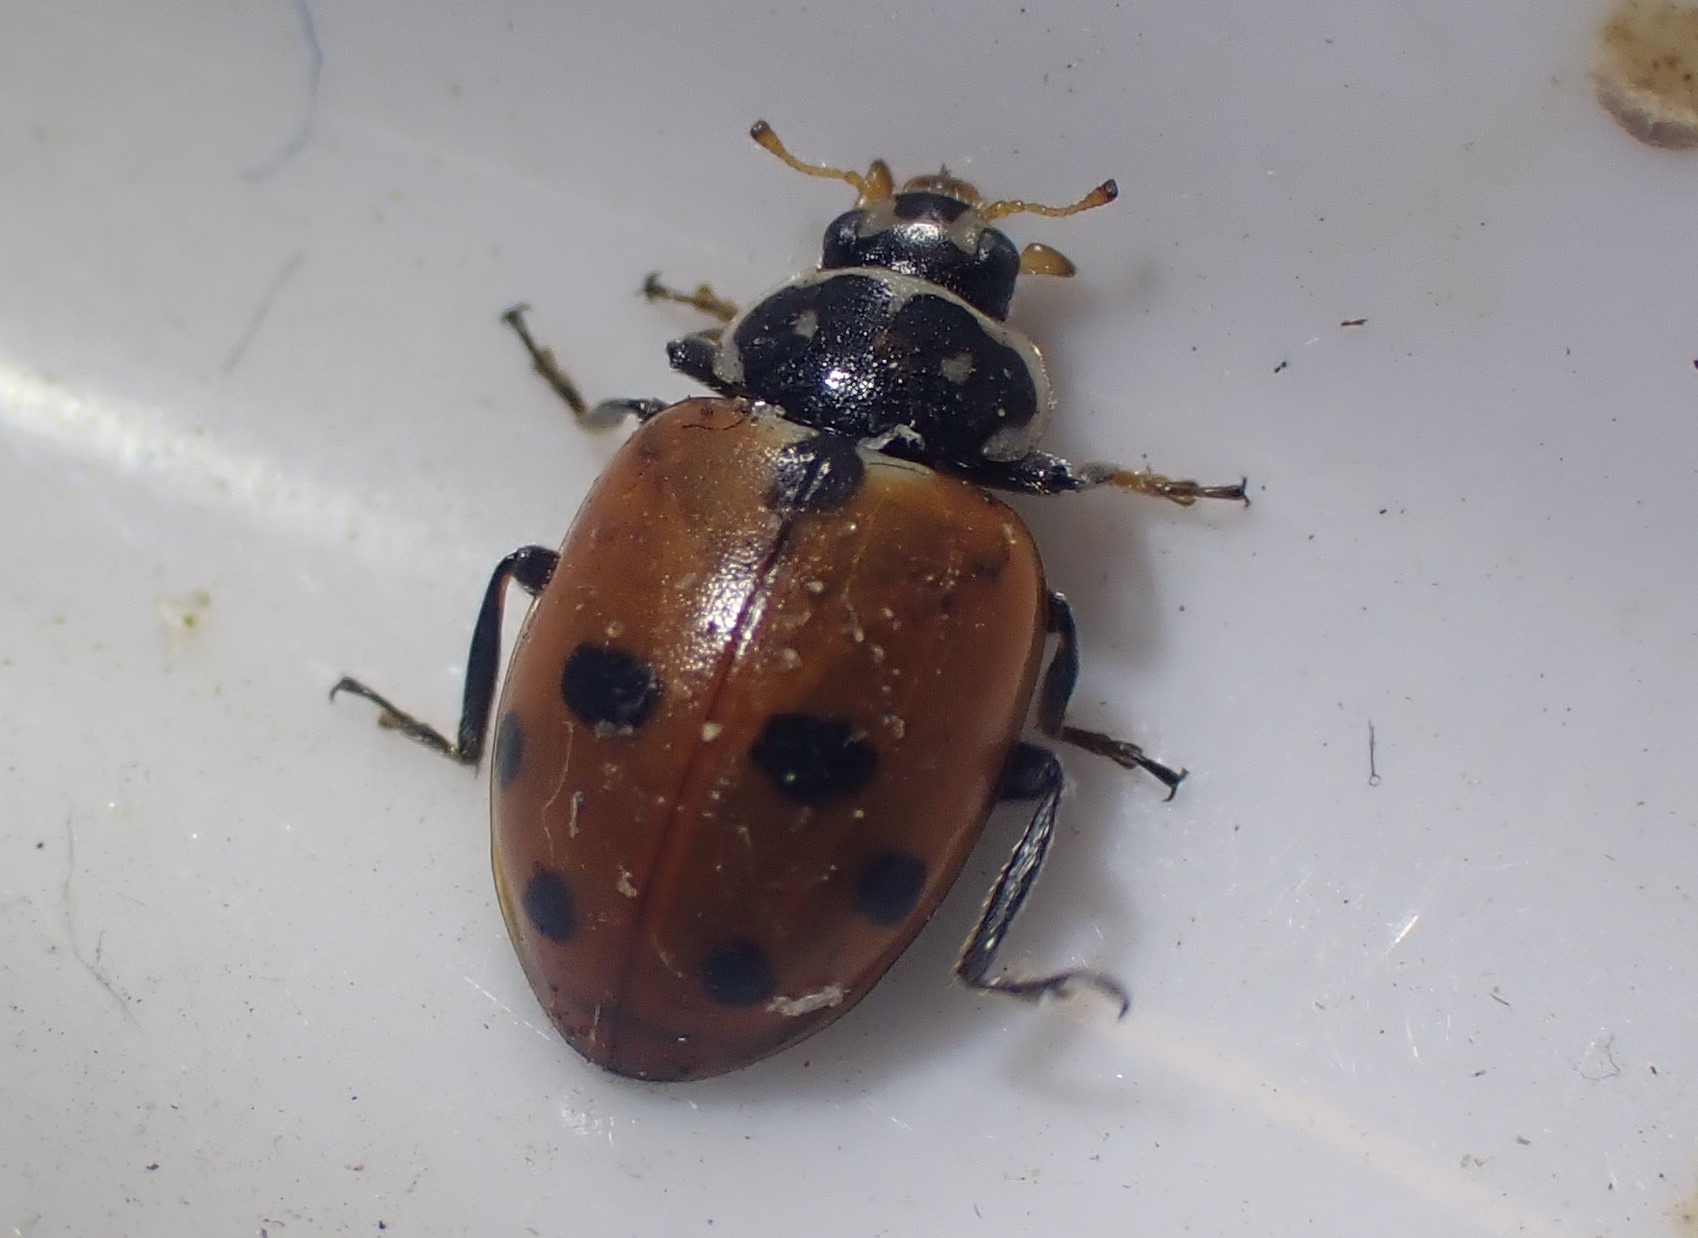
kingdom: Animalia
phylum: Arthropoda
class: Insecta
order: Coleoptera
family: Coccinellidae
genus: Hippodamia
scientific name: Hippodamia variegata
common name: Adonis' mariehøne
